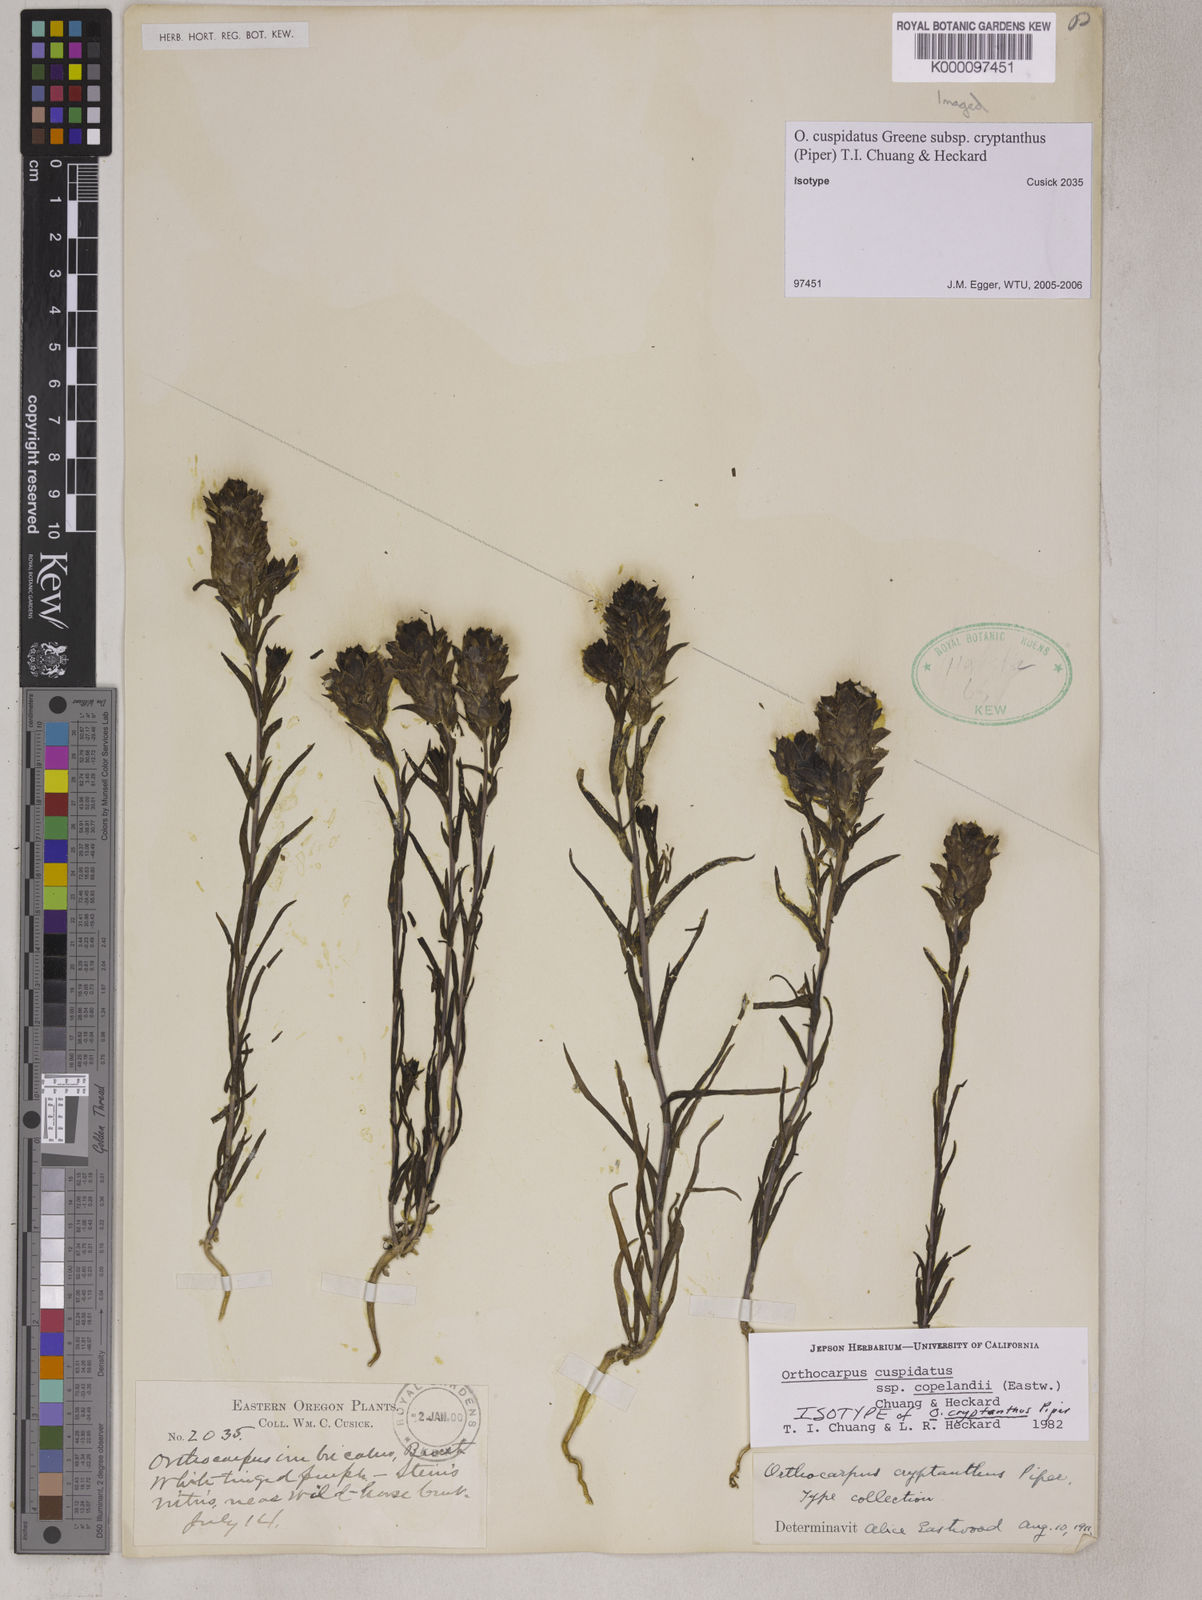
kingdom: Plantae
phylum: Tracheophyta
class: Magnoliopsida
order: Lamiales
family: Orobanchaceae
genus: Orthocarpus
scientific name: Orthocarpus cuspidatus
